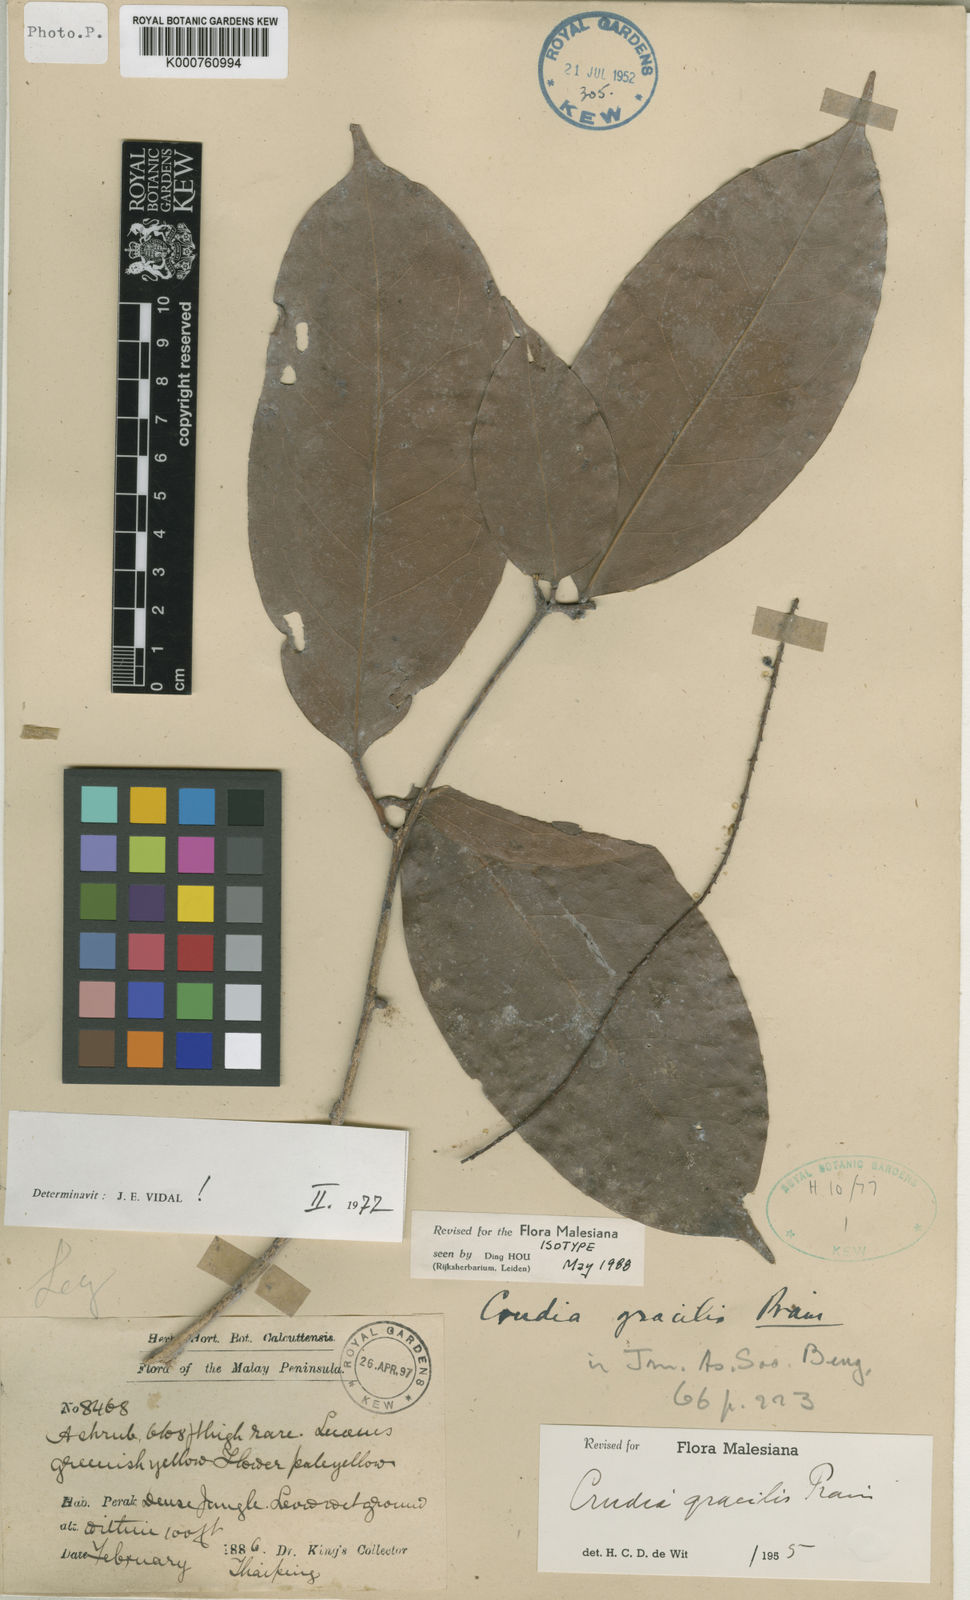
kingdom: Plantae
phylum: Tracheophyta
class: Magnoliopsida
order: Fabales
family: Fabaceae
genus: Crudia
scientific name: Crudia gracilis
